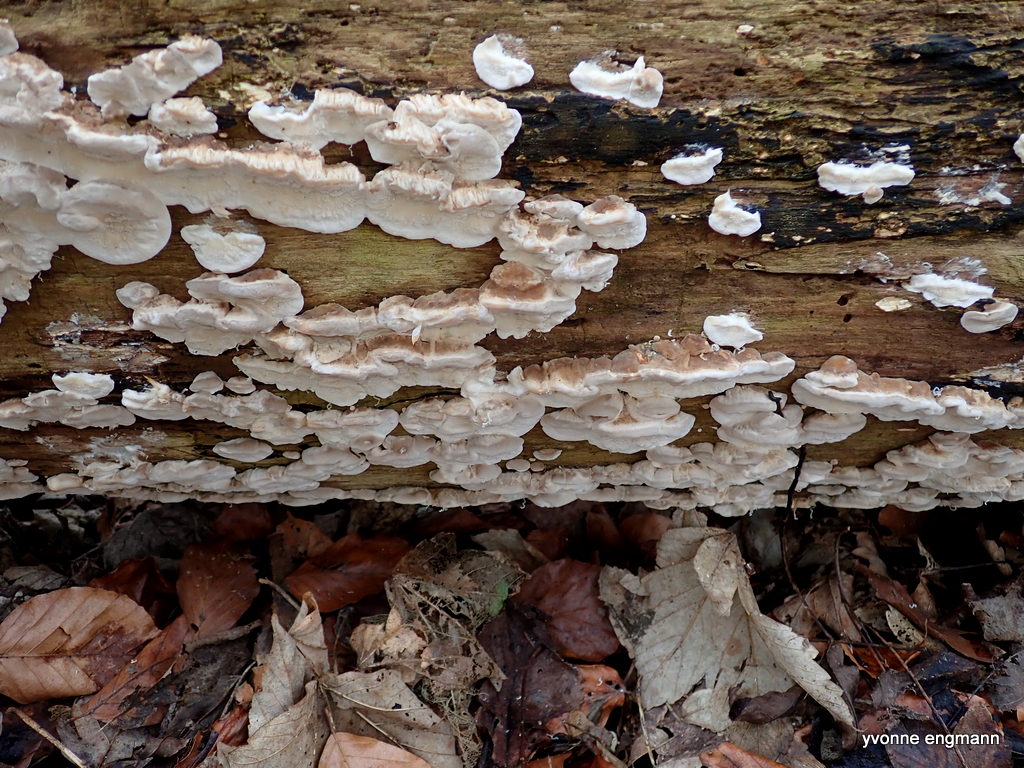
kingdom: Fungi
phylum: Basidiomycota
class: Agaricomycetes
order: Polyporales
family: Polyporaceae
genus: Trametes
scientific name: Trametes versicolor
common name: broget læderporesvamp
